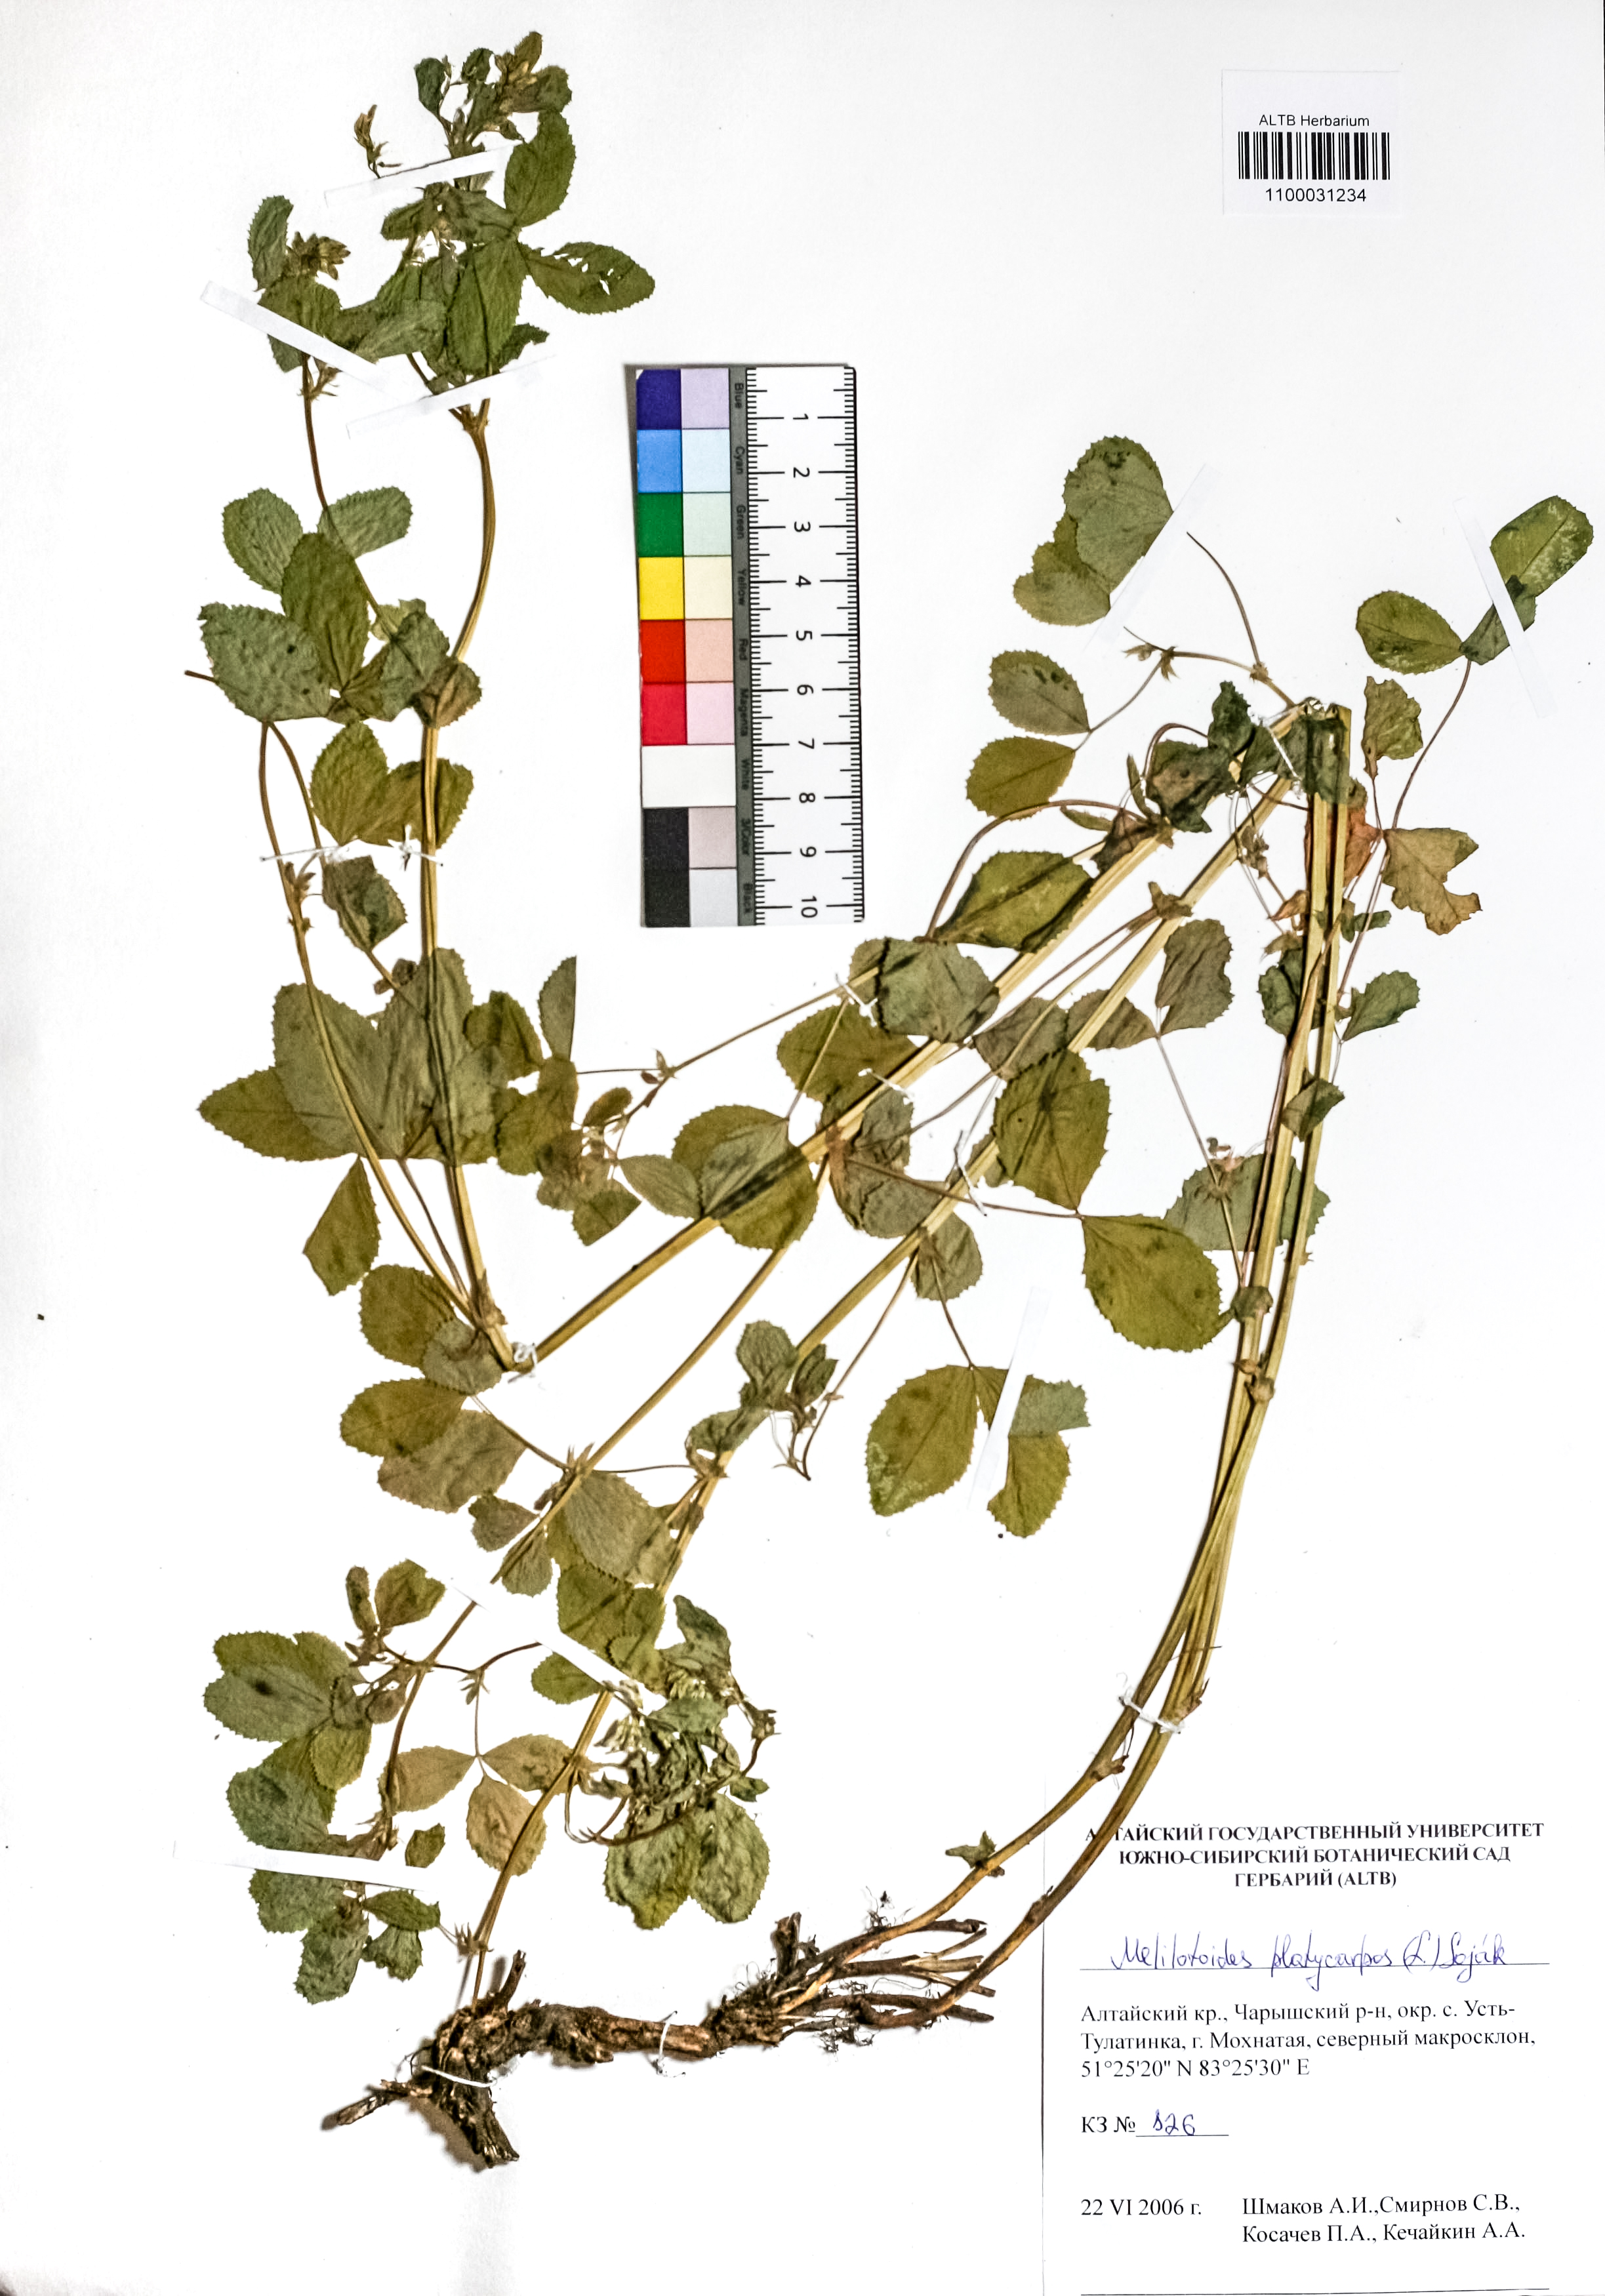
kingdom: Plantae
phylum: Tracheophyta
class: Magnoliopsida
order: Fabales
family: Fabaceae
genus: Medicago
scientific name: Medicago platycarpos
